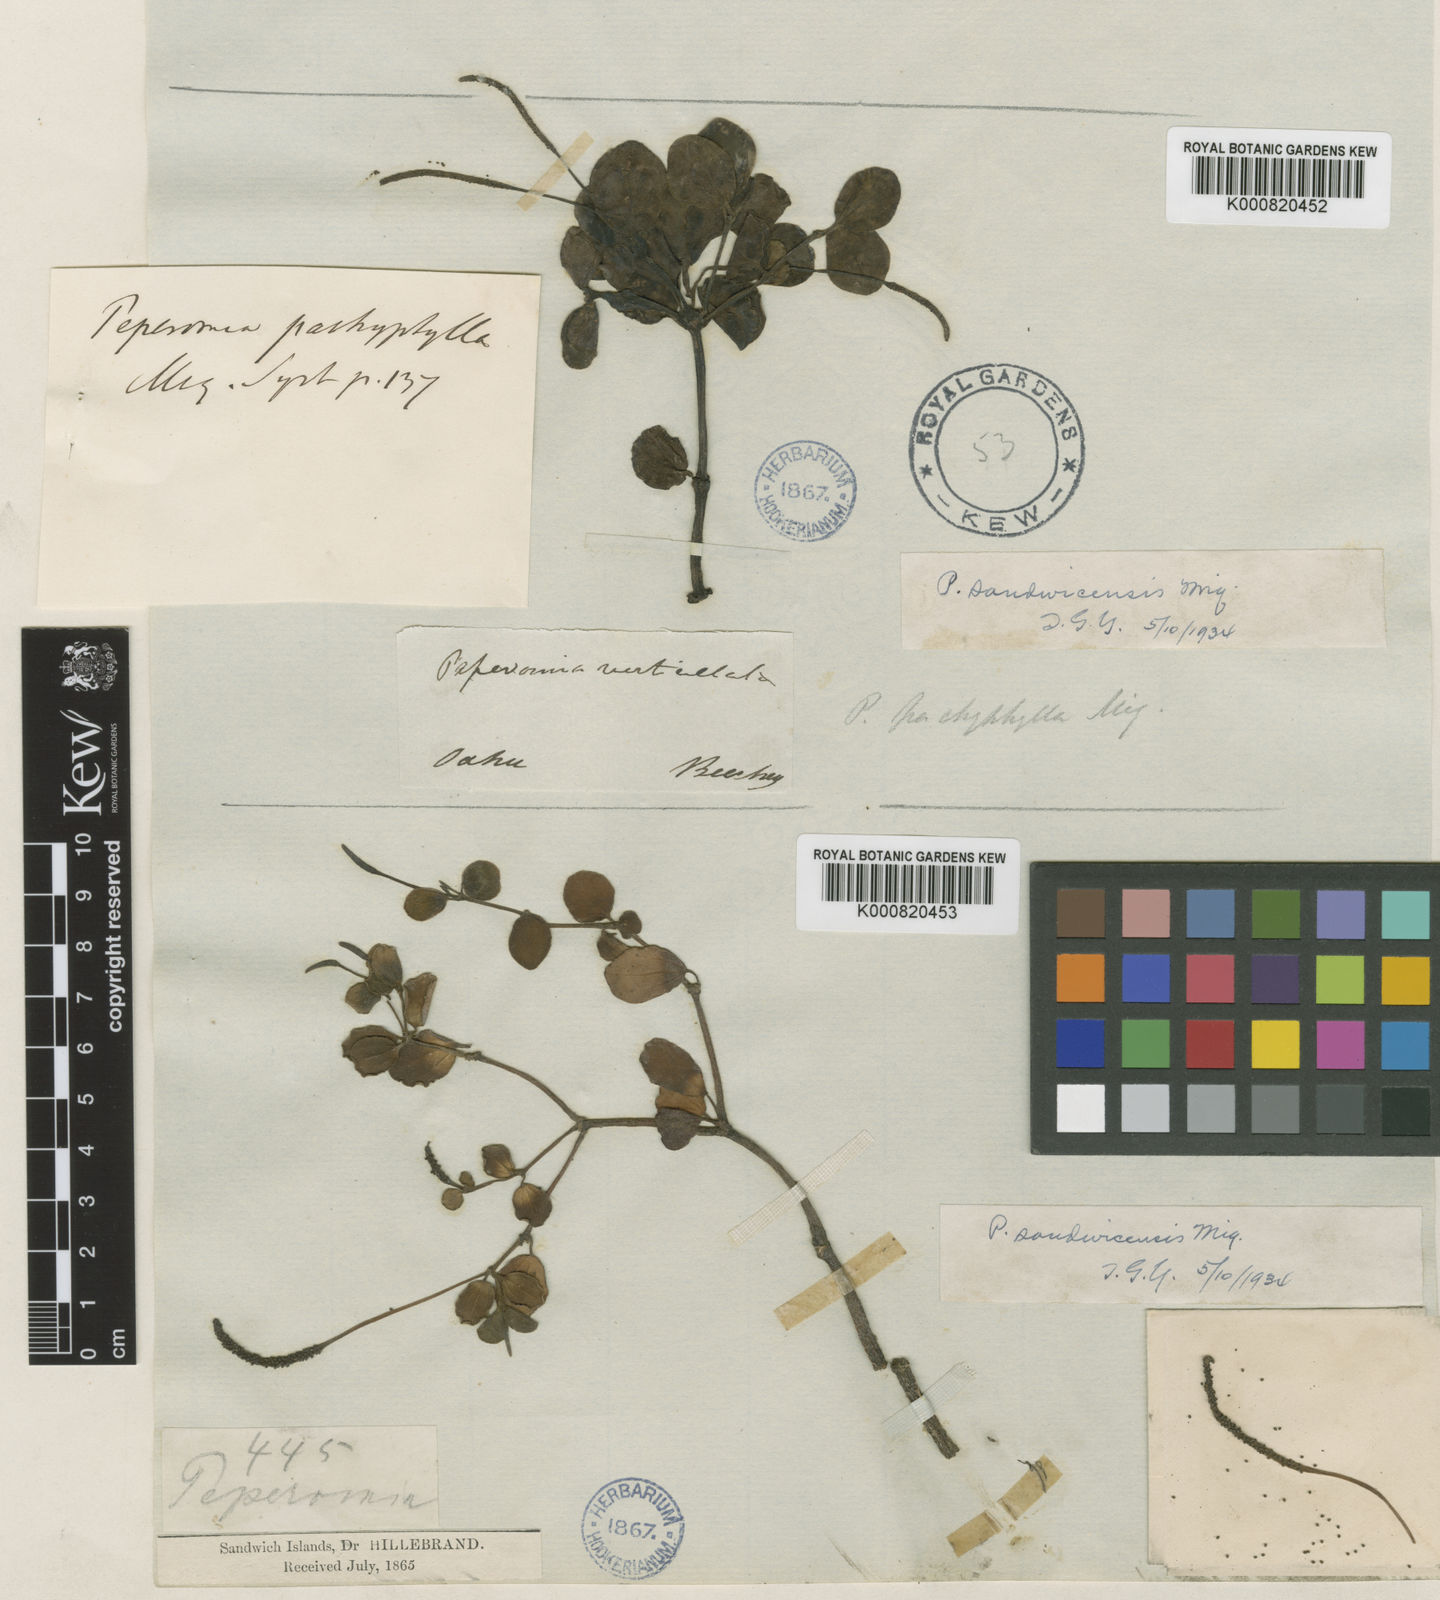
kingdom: Plantae
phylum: Tracheophyta
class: Magnoliopsida
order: Piperales
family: Piperaceae
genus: Peperomia
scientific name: Peperomia sandwicensis
